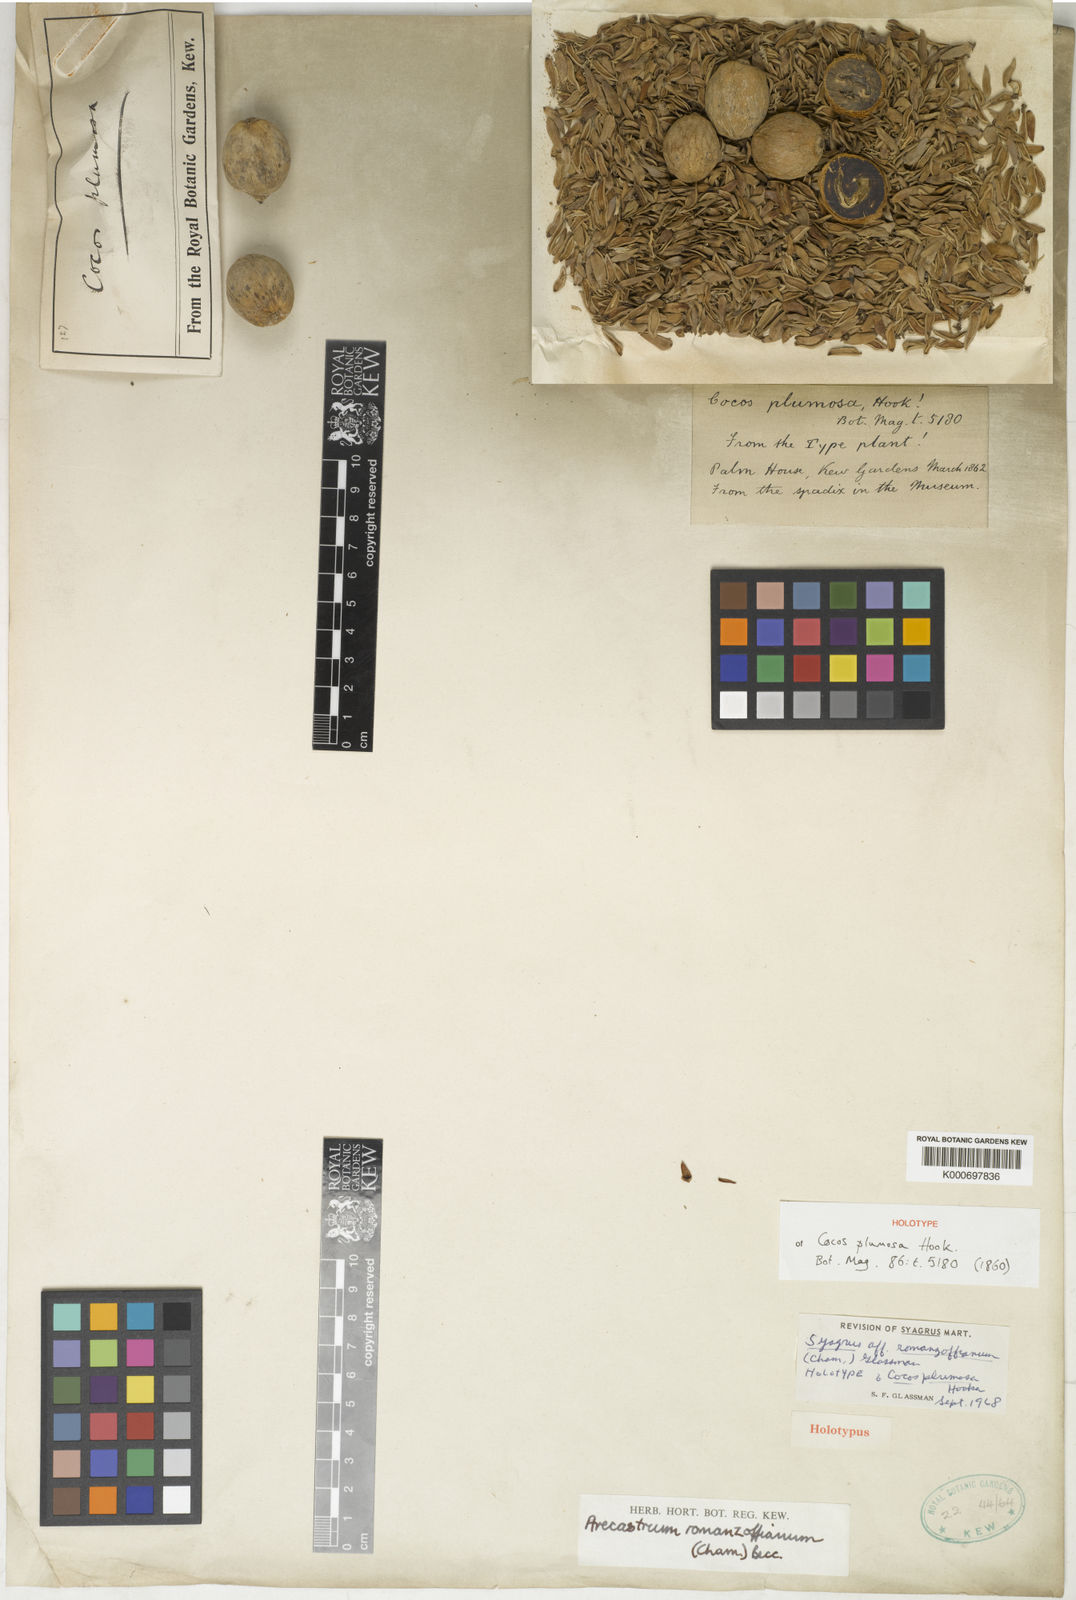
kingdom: Plantae
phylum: Tracheophyta
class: Liliopsida
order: Arecales
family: Arecaceae
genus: Syagrus
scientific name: Syagrus romanzoffiana
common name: Queen palm
